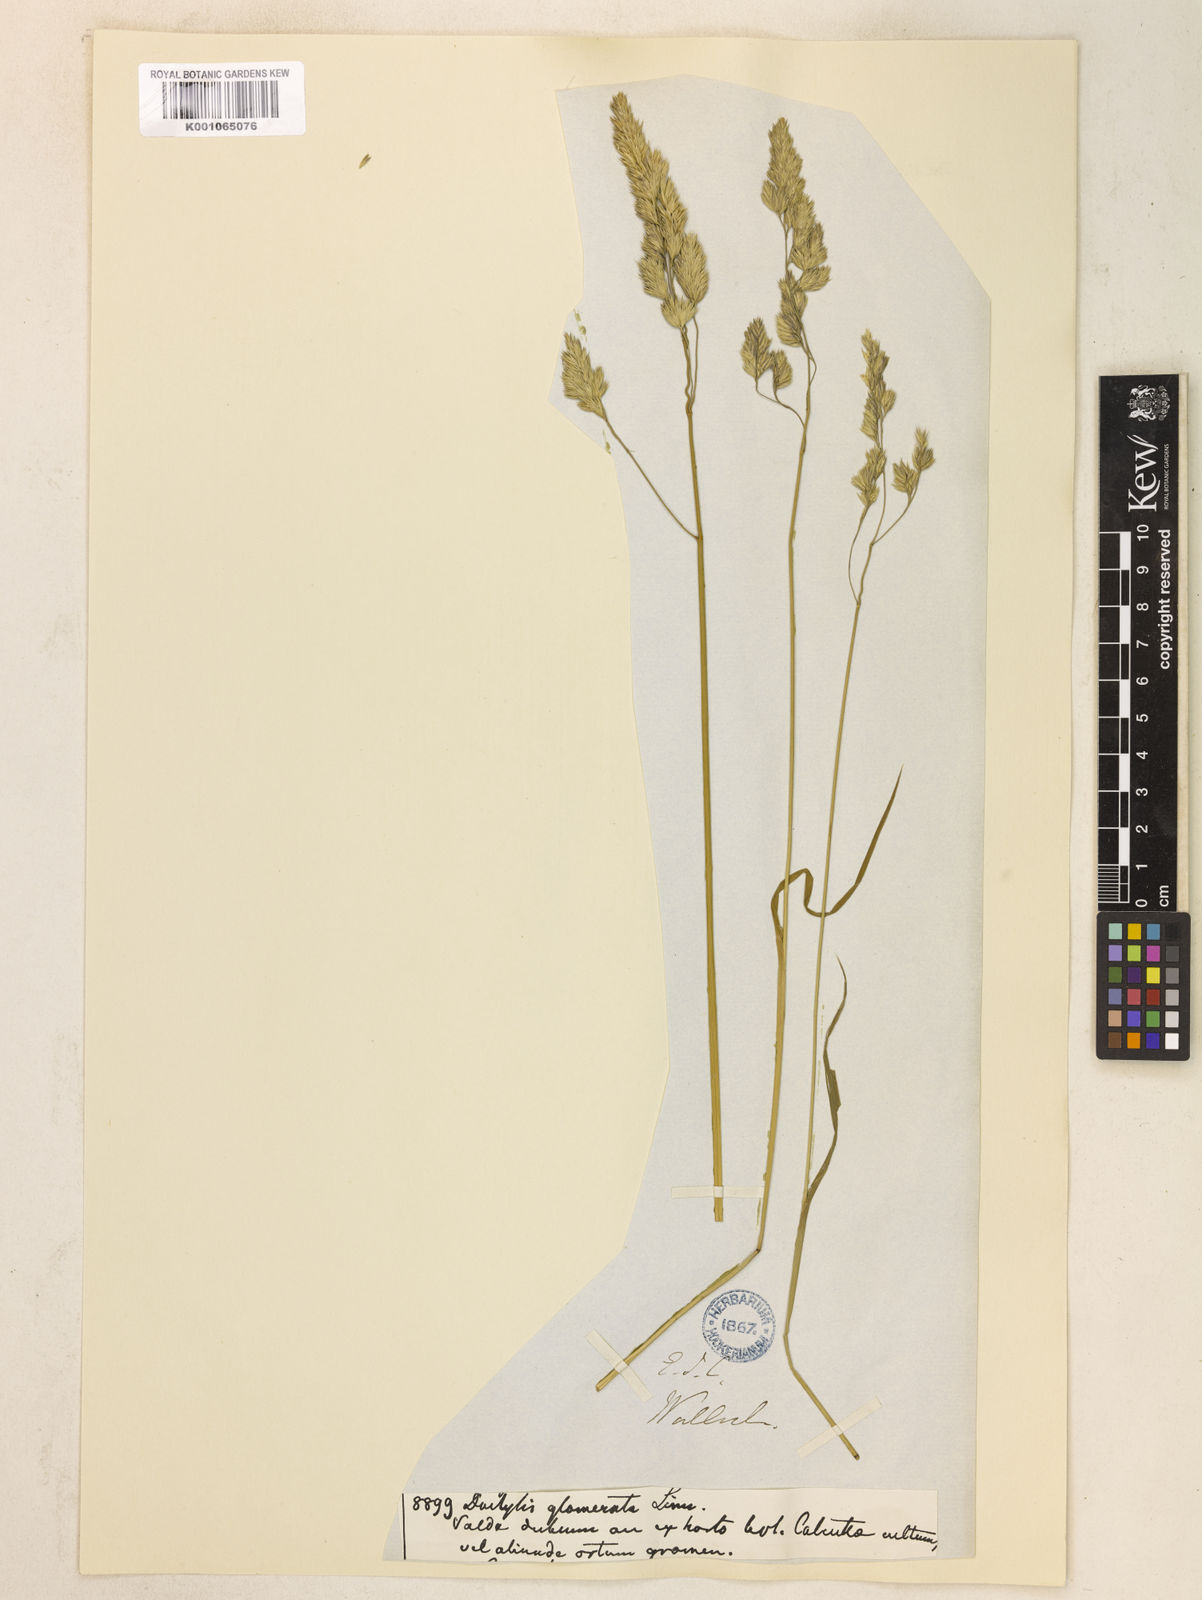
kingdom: Plantae
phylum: Tracheophyta
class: Liliopsida
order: Poales
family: Poaceae
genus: Dactylis
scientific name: Dactylis glomerata
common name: Orchardgrass
